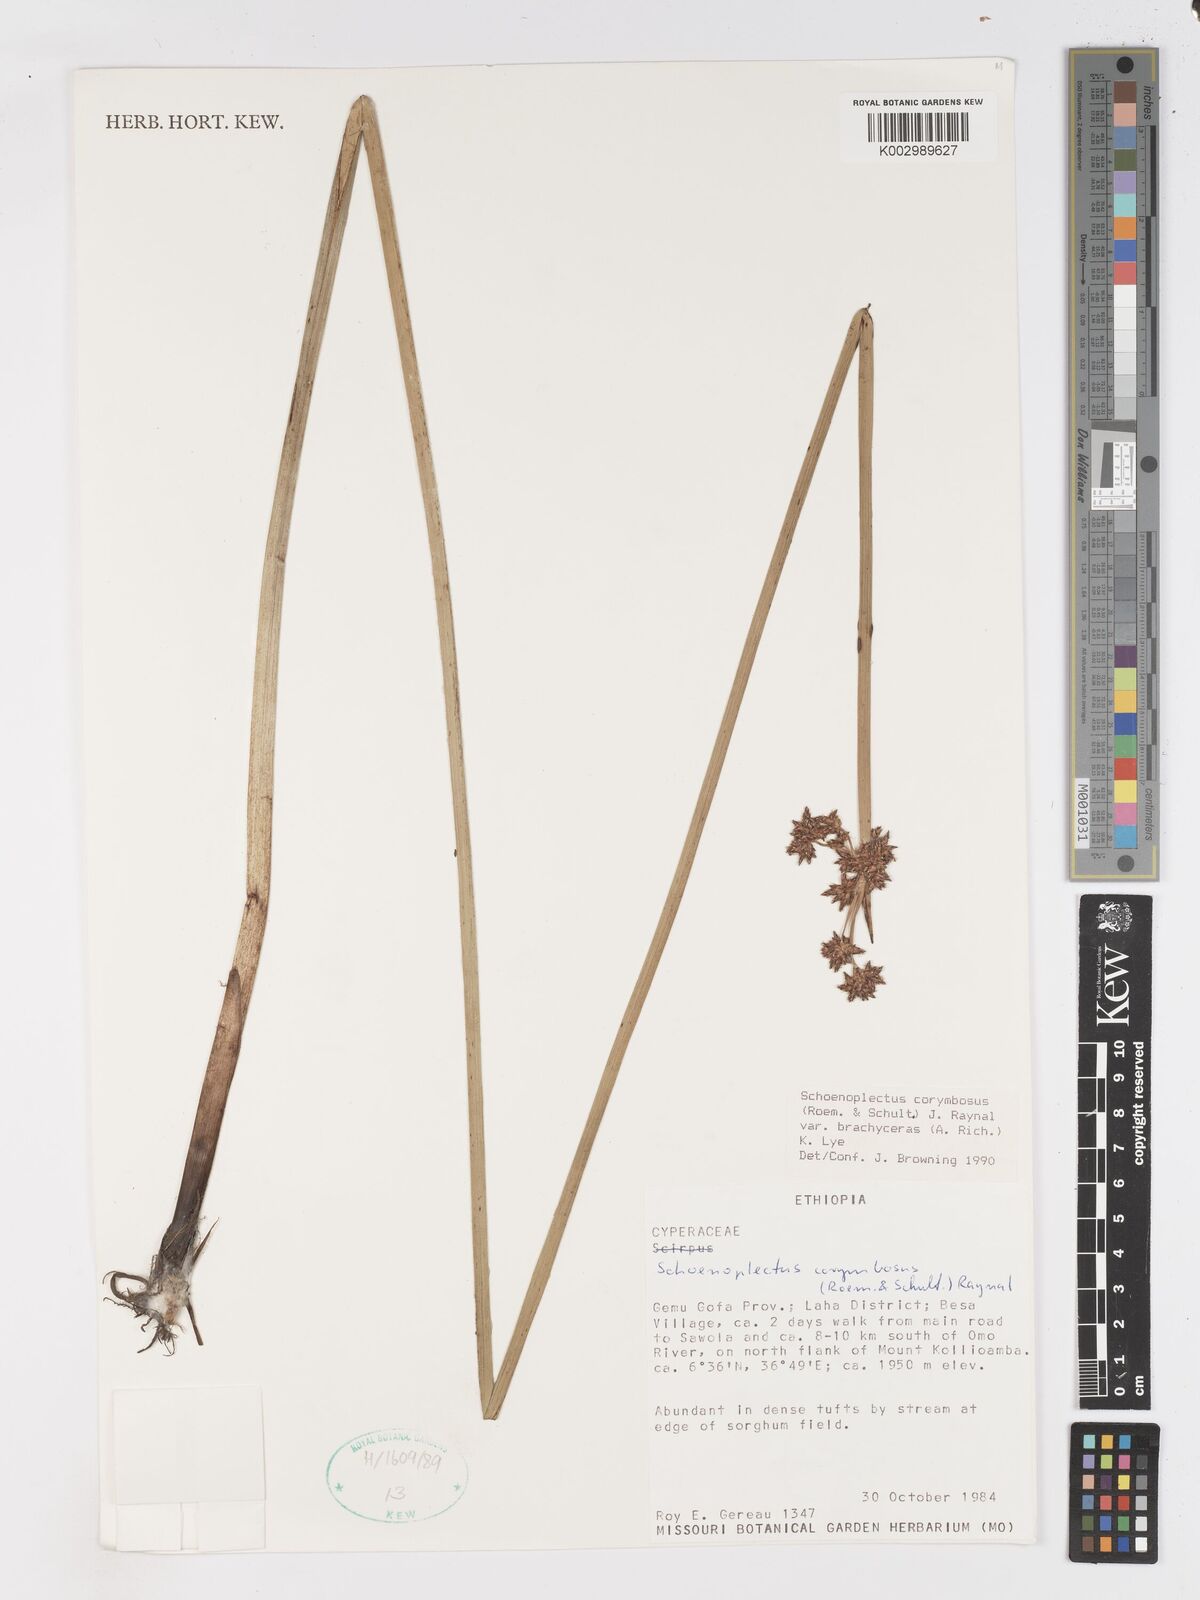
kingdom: Plantae
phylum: Tracheophyta
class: Liliopsida
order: Poales
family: Cyperaceae
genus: Schoenoplectiella
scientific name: Schoenoplectiella brachyceras
